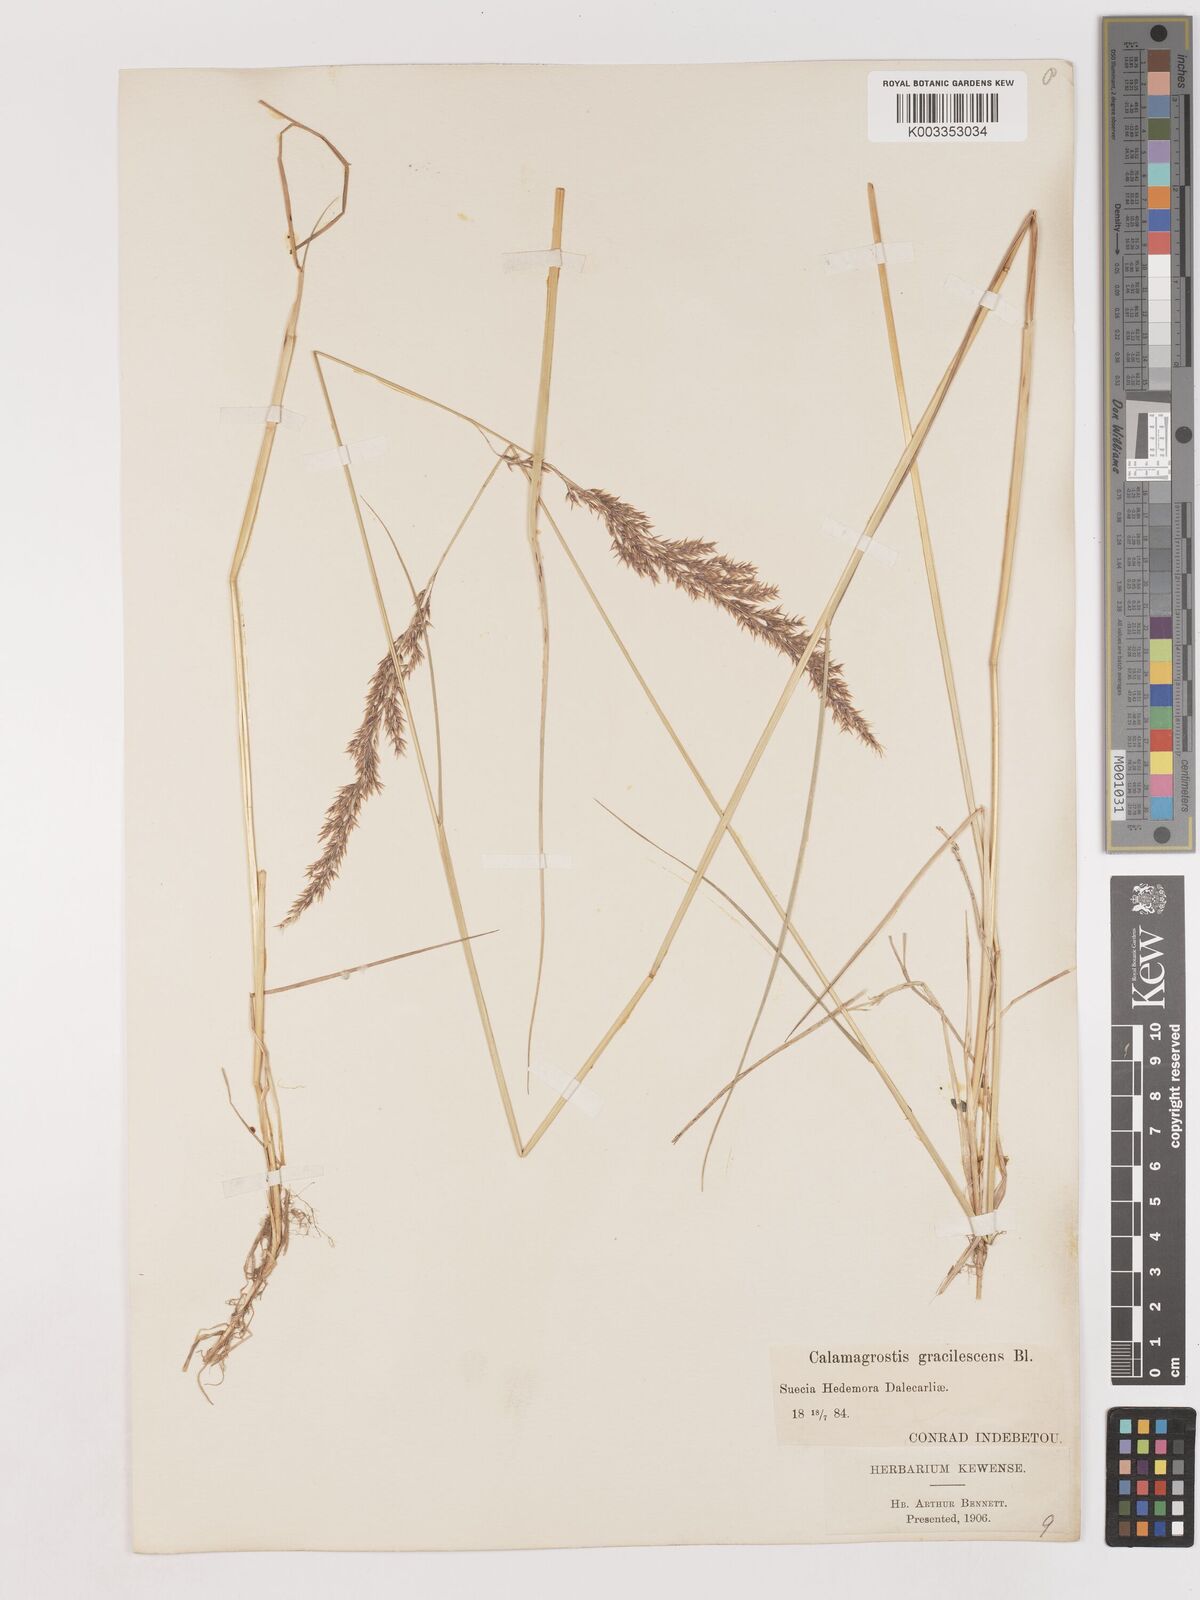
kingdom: Plantae
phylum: Tracheophyta
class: Liliopsida
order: Poales
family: Poaceae
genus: Calamagrostis
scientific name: Calamagrostis canescens
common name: Purple small-reed
